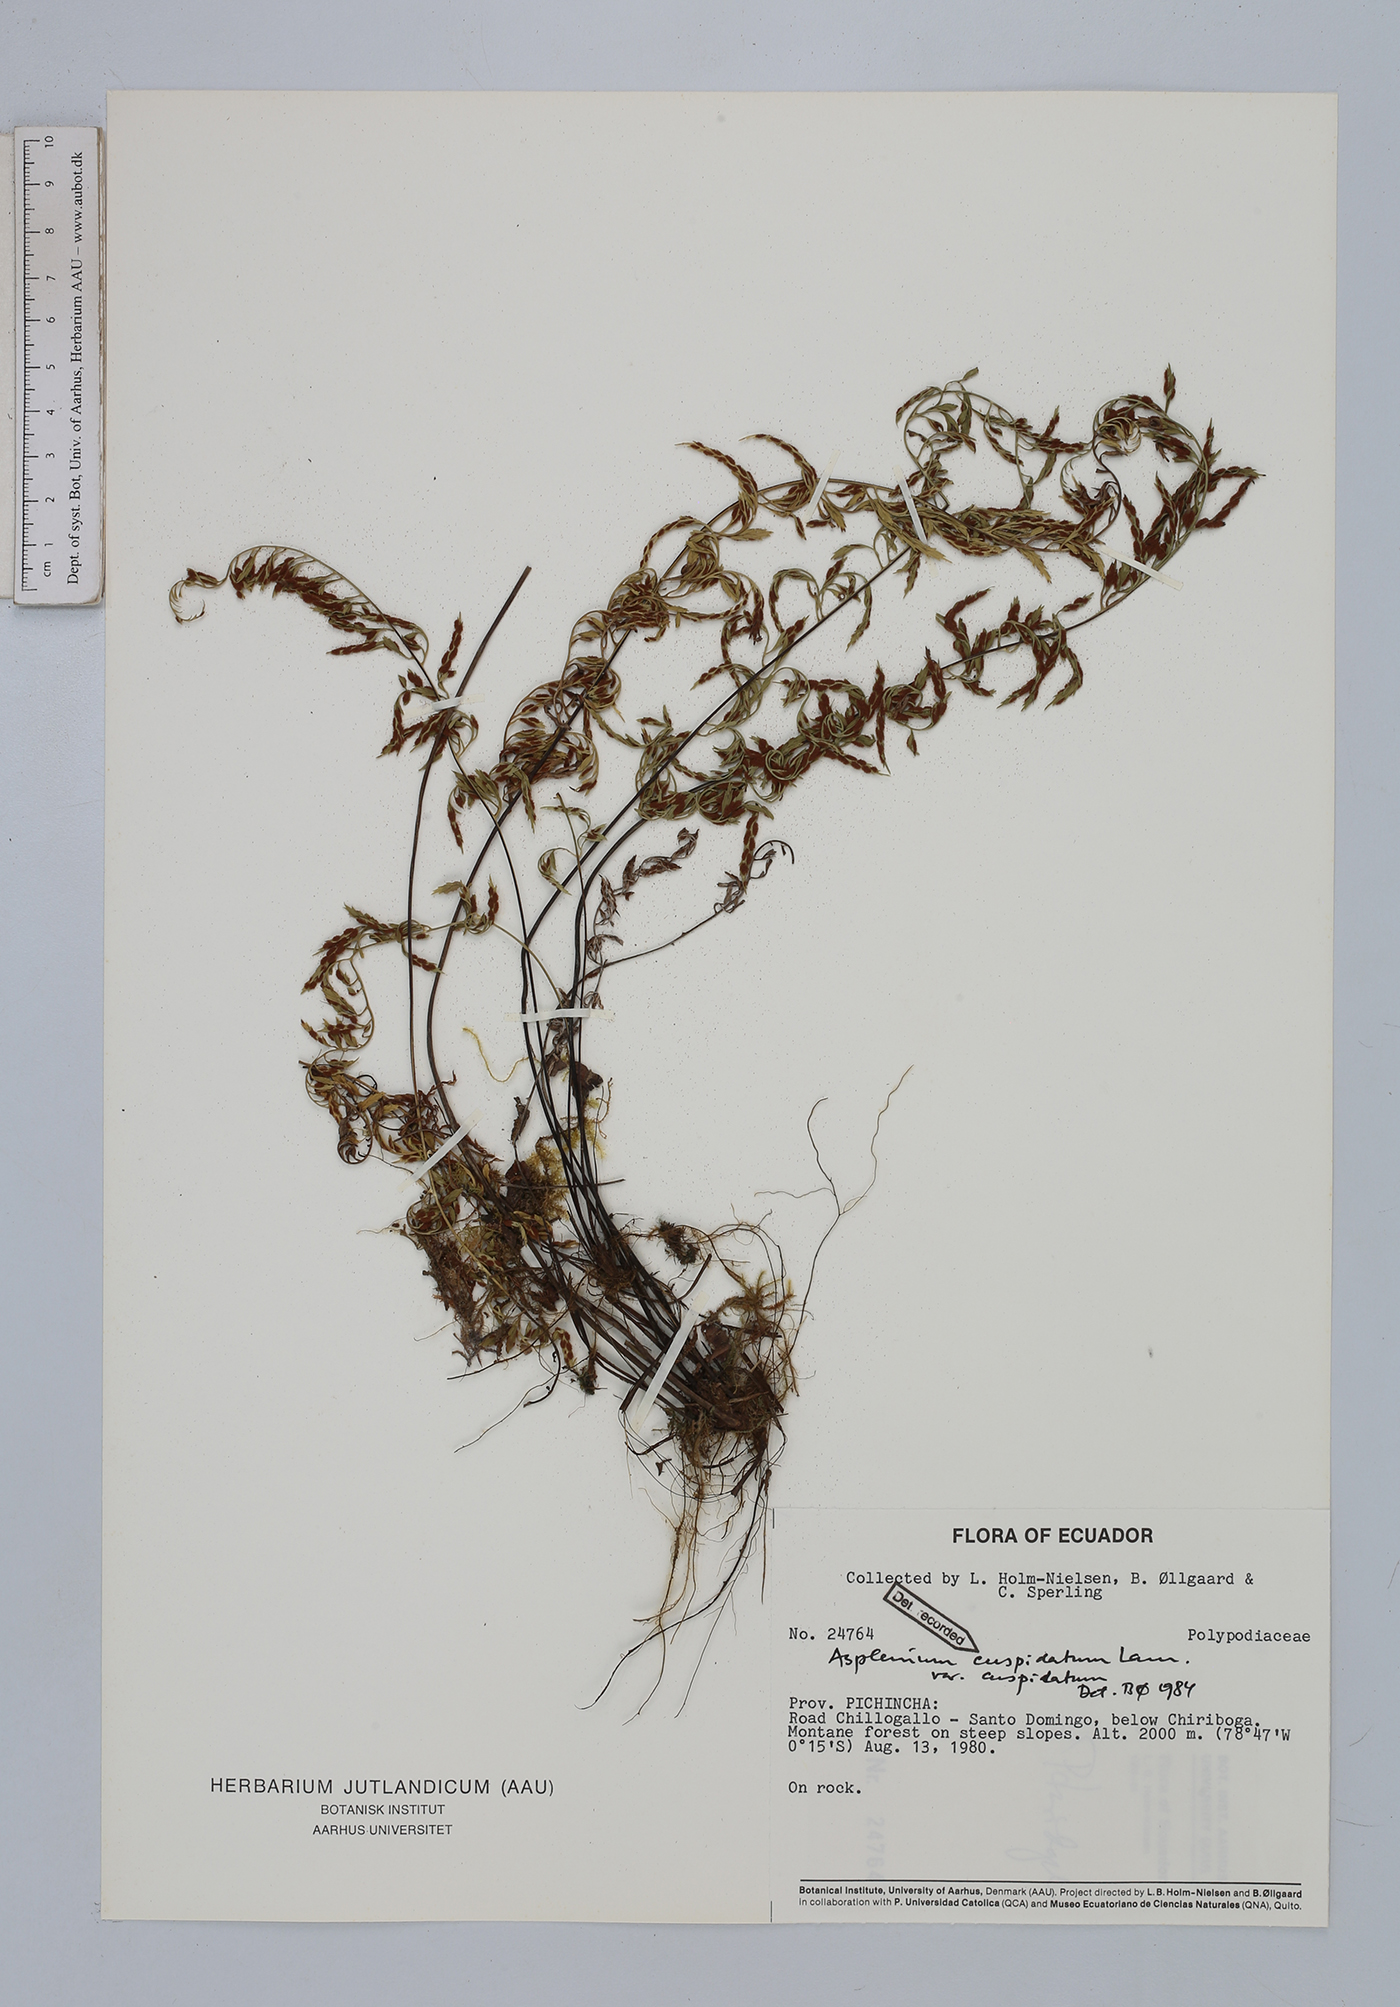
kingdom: Plantae
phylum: Tracheophyta
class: Polypodiopsida
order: Polypodiales
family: Aspleniaceae
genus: Asplenium
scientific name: Asplenium cuspidatum
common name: Eared spleenwort
